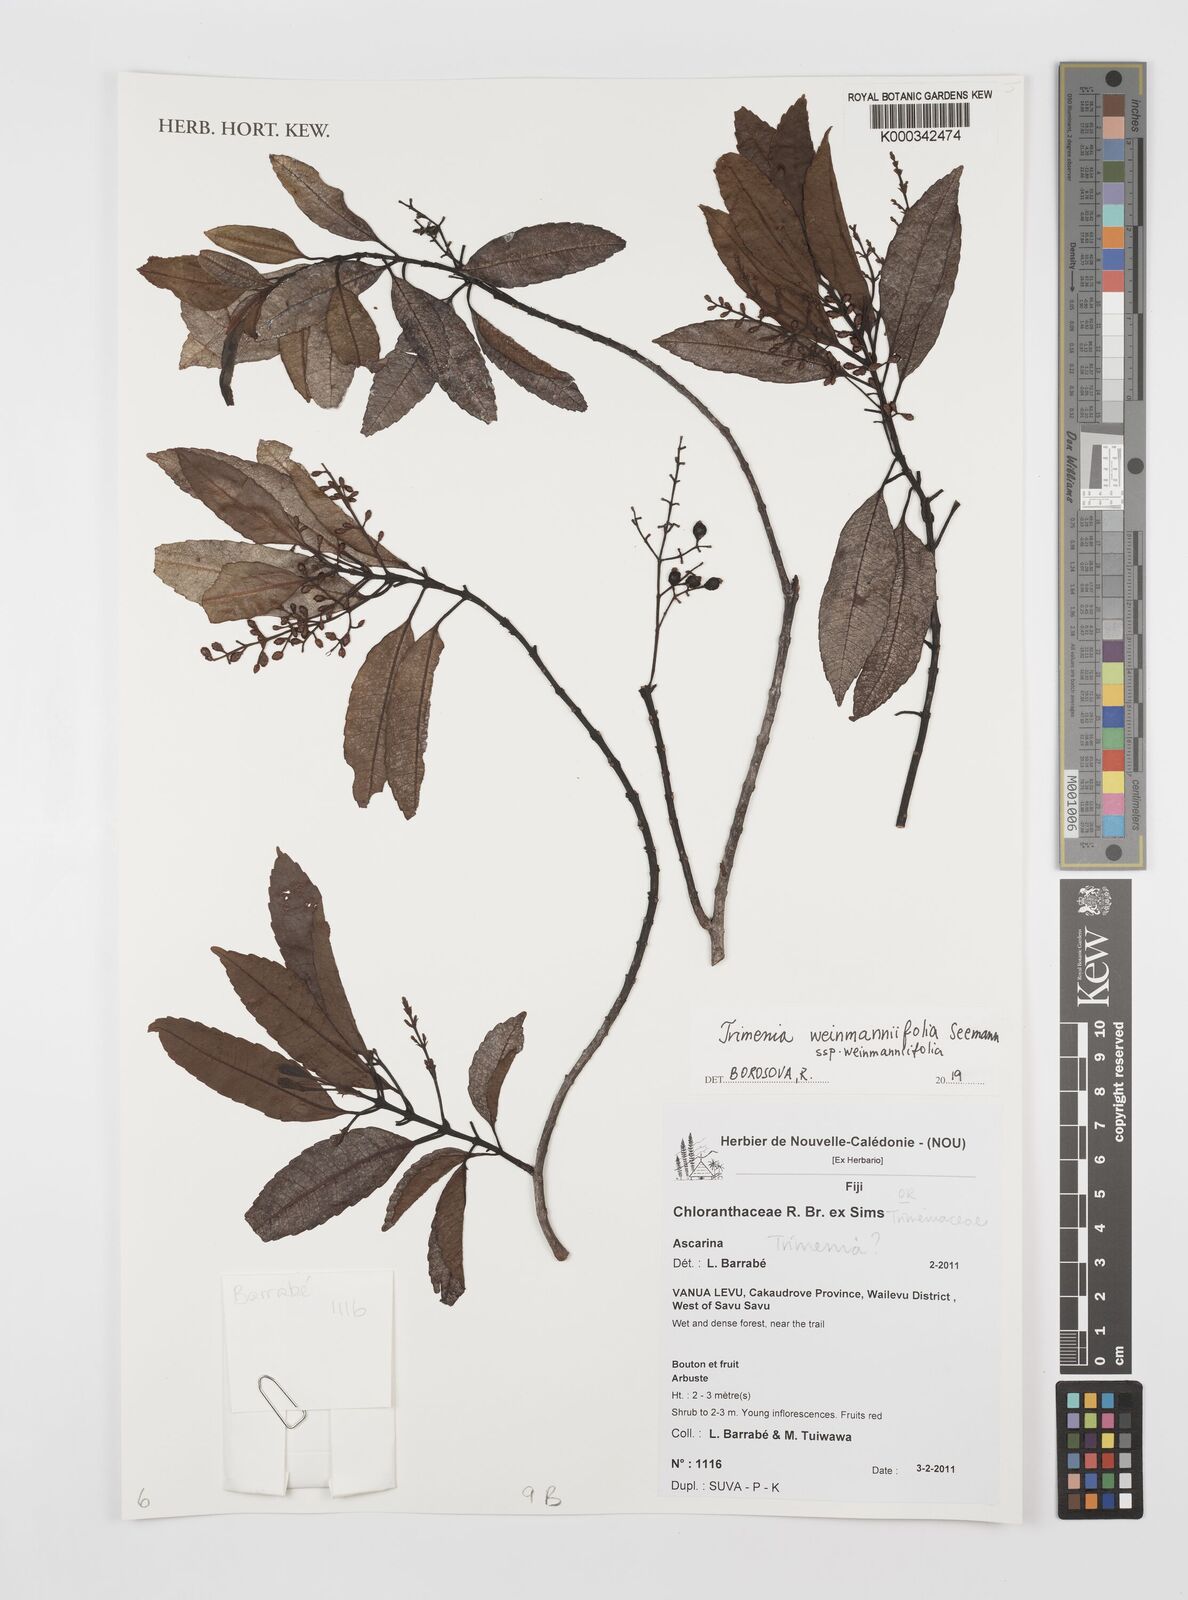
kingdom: Plantae
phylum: Tracheophyta
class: Magnoliopsida
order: Austrobaileyales
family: Trimeniaceae
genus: Trimenia
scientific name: Trimenia weinmanniifolia
